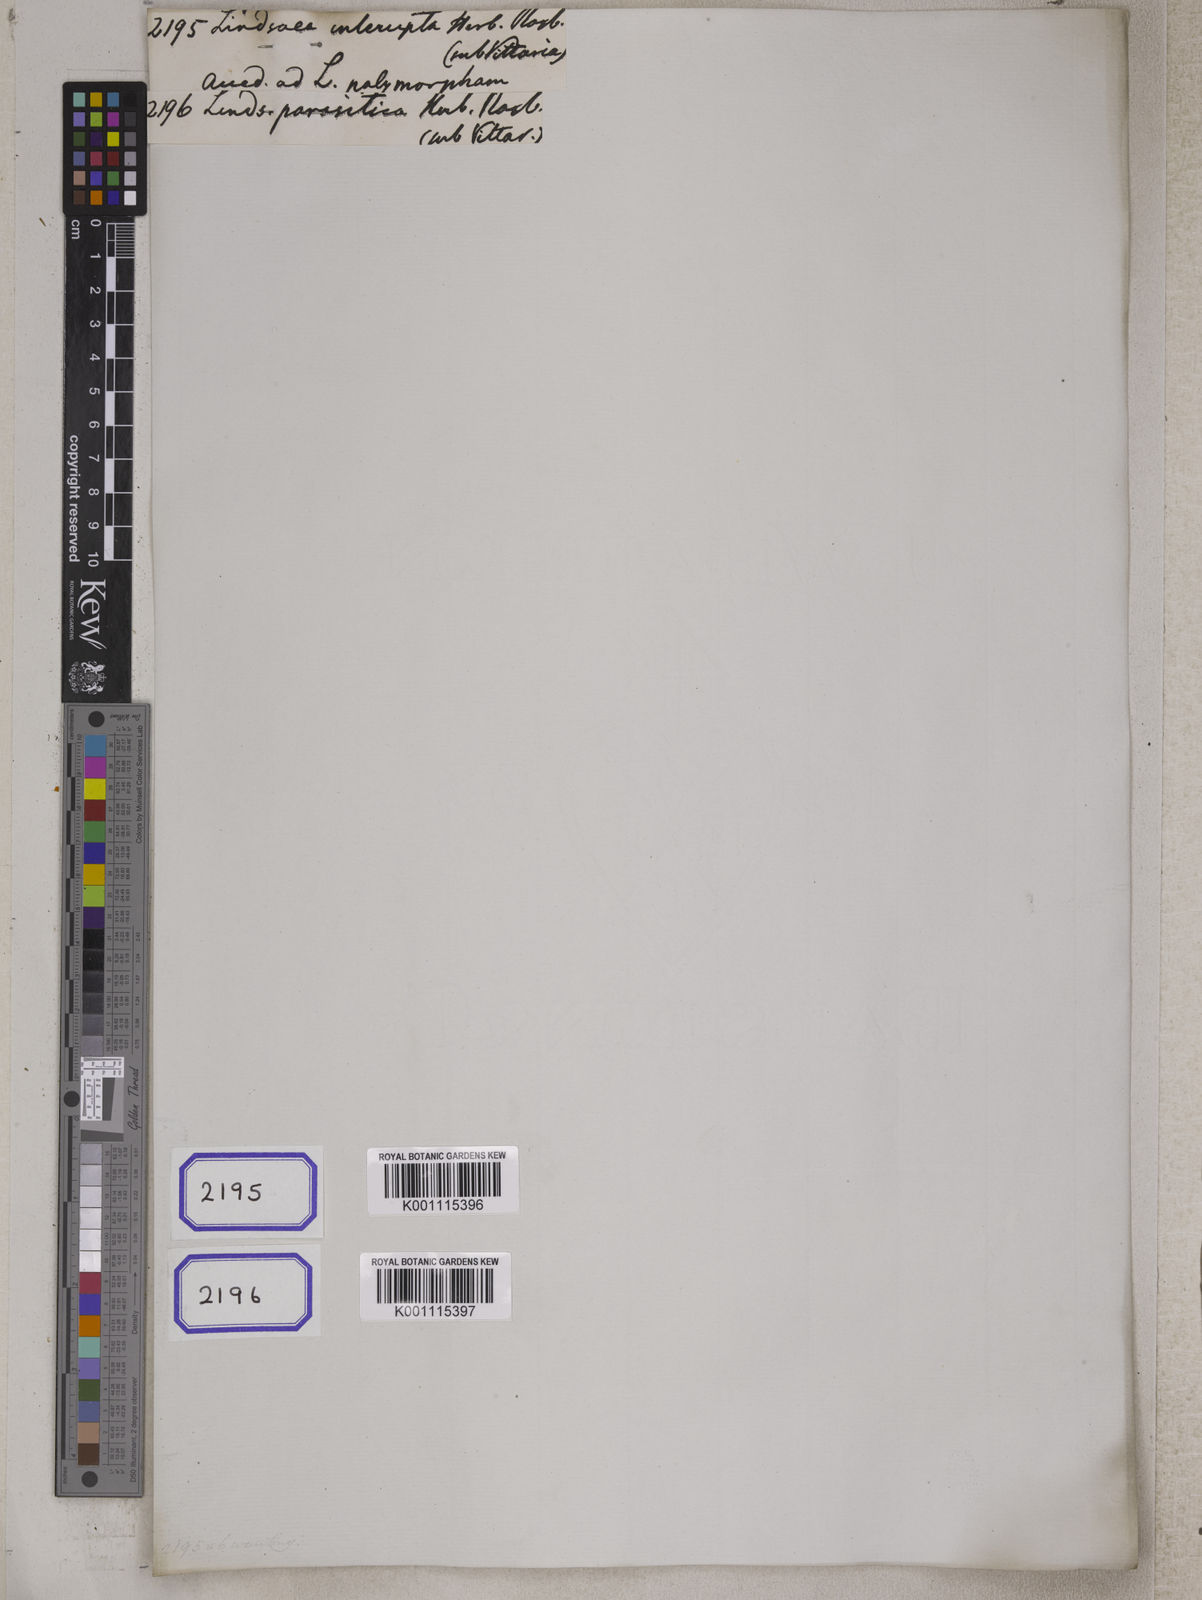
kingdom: Plantae
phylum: Tracheophyta
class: Polypodiopsida
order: Polypodiales
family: Lindsaeaceae
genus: Nesolindsaea
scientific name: Nesolindsaea caudata
